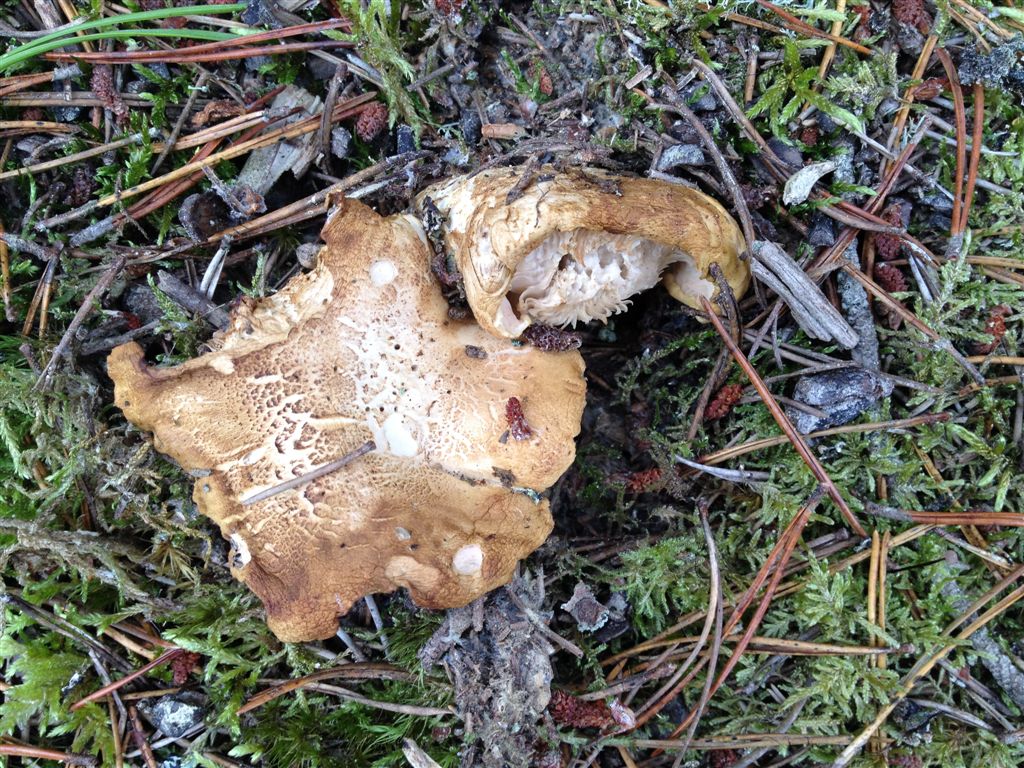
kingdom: Fungi
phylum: Basidiomycota
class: Agaricomycetes
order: Agaricales
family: Tricholomataceae
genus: Tricholoma
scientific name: Tricholoma apium
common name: suppe-ridderhat
